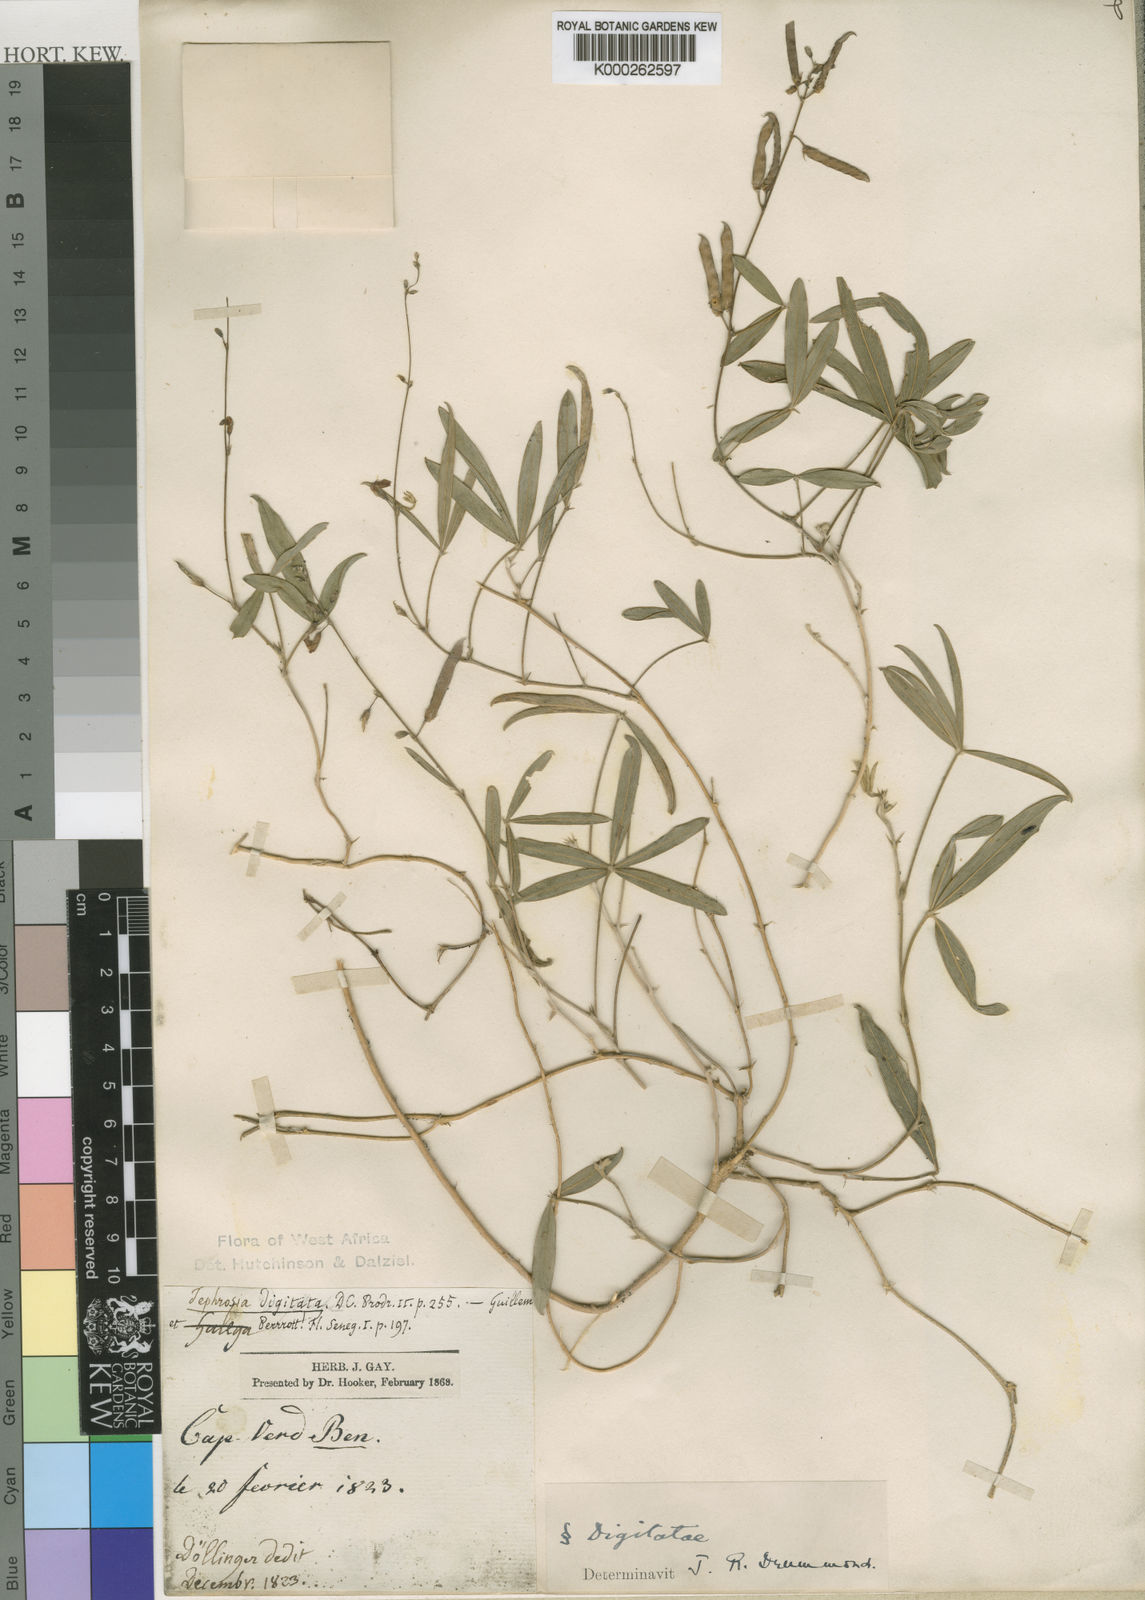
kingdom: Plantae
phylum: Tracheophyta
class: Magnoliopsida
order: Fabales
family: Fabaceae
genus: Tephrosia
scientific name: Tephrosia lupinifolia
